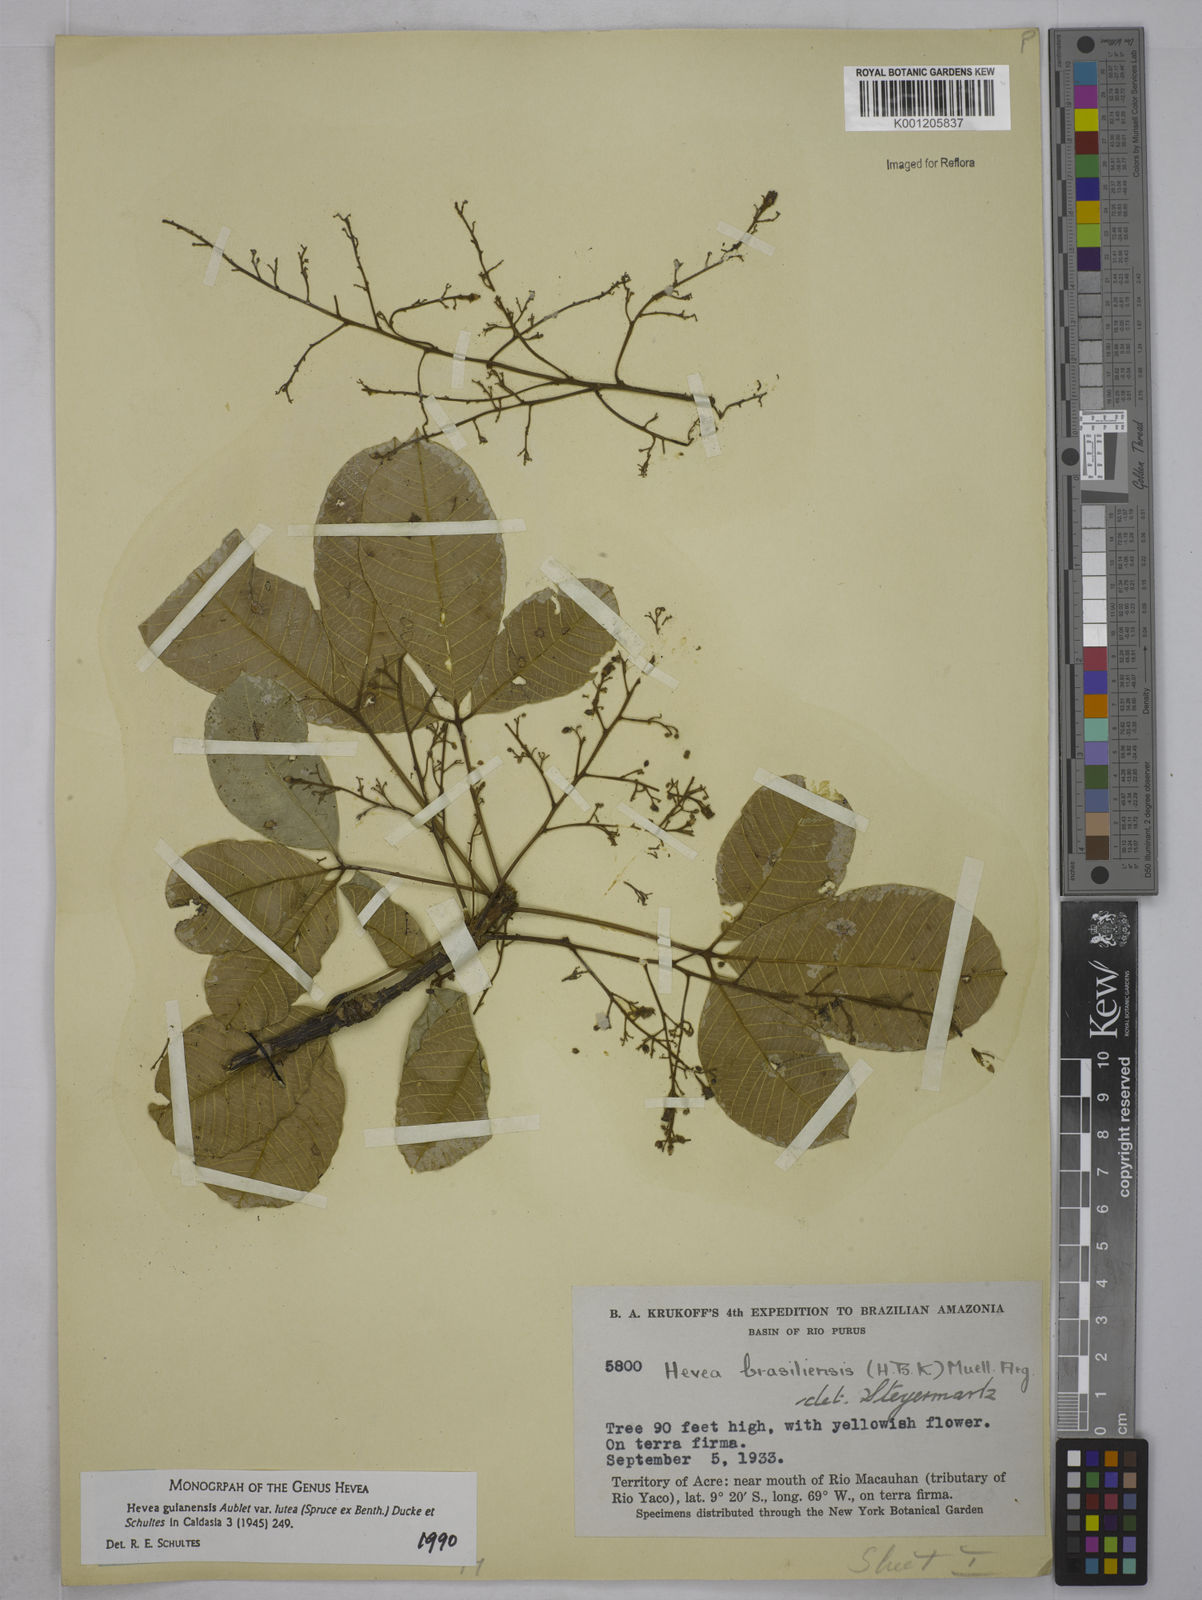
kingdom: Plantae
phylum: Tracheophyta
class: Magnoliopsida
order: Malpighiales
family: Euphorbiaceae
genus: Hevea
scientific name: Hevea guianensis
